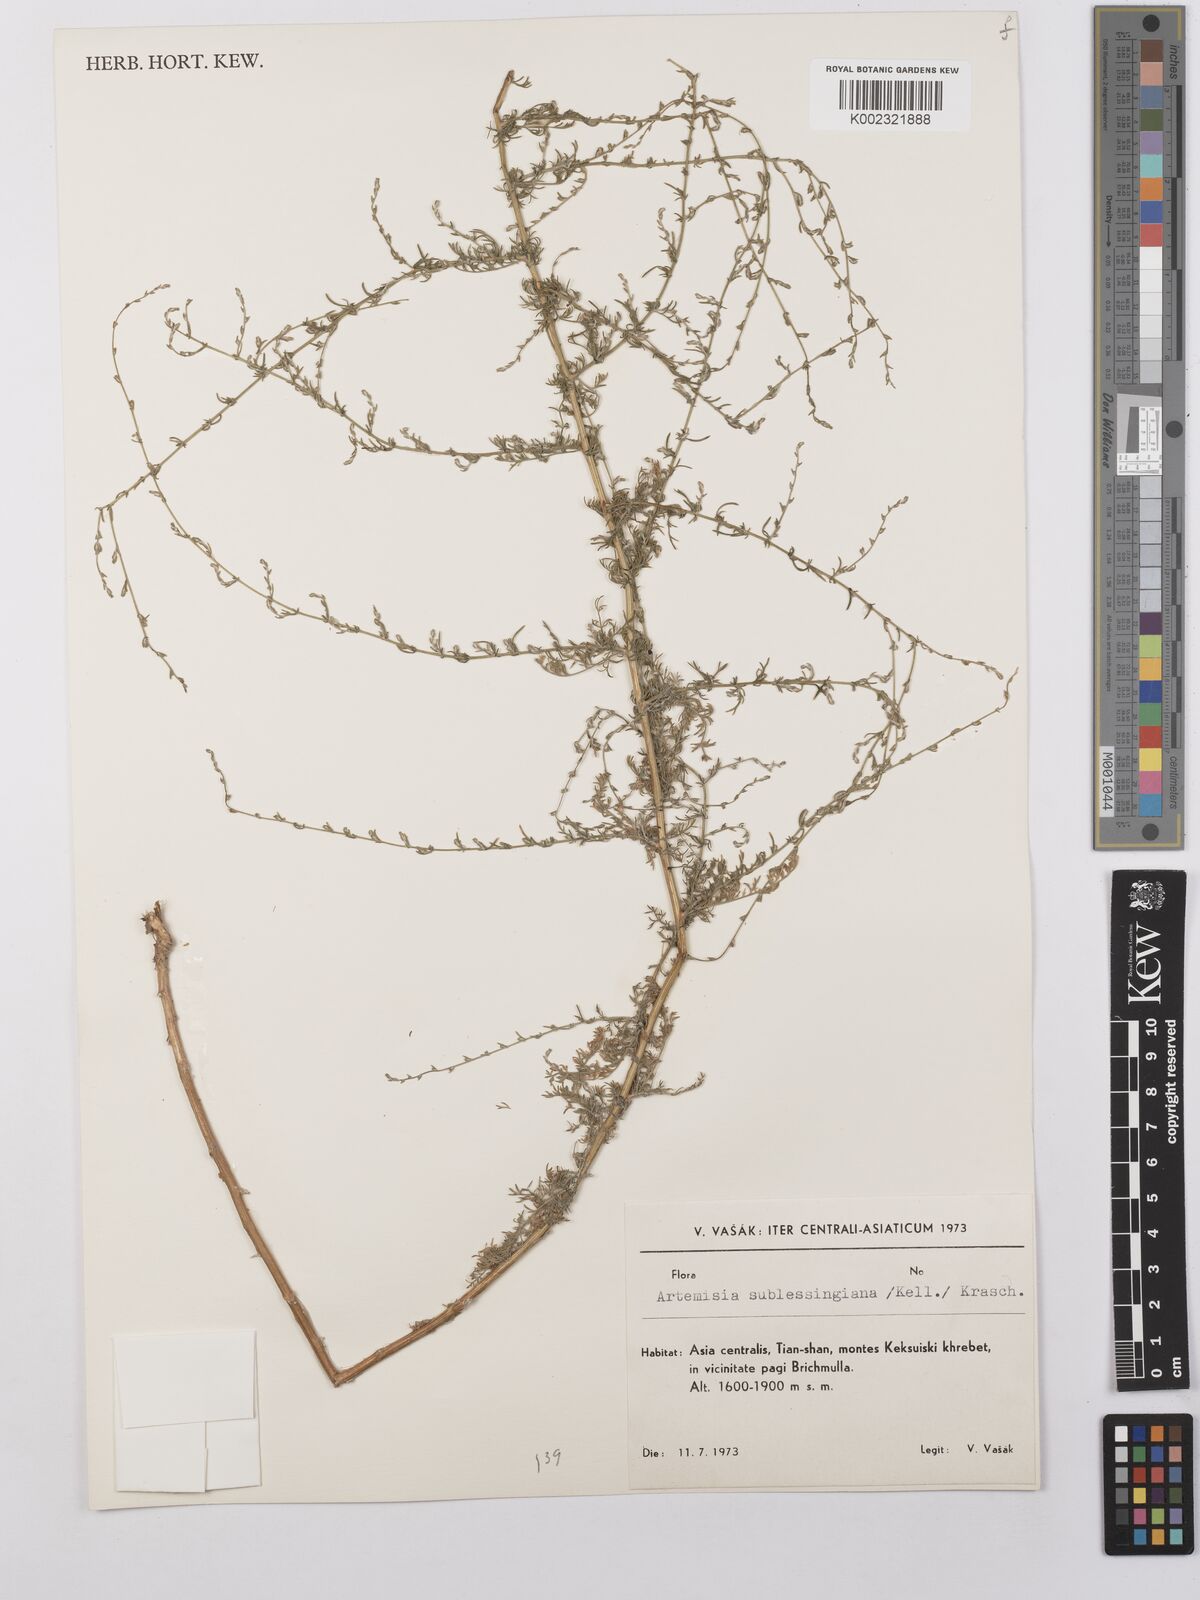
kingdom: Plantae
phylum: Tracheophyta
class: Magnoliopsida
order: Asterales
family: Asteraceae
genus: Artemisia
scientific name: Artemisia sublessingiana
